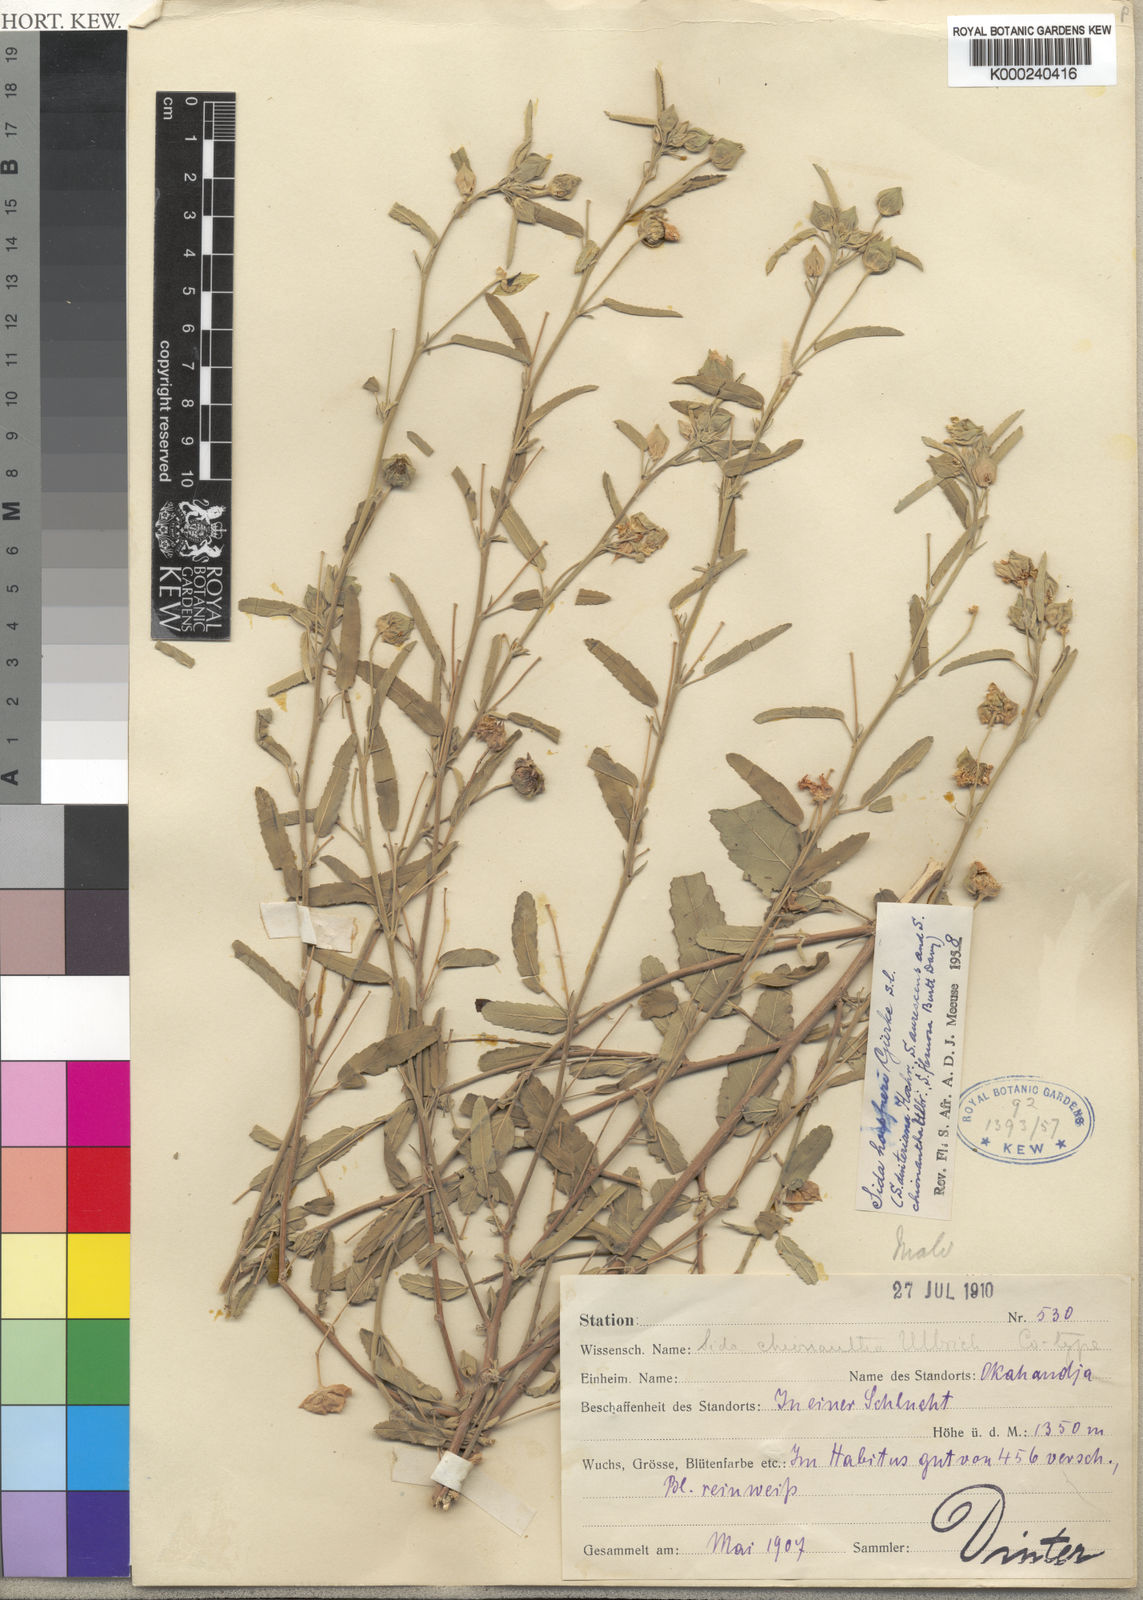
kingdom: Plantae
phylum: Tracheophyta
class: Magnoliopsida
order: Malvales
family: Malvaceae
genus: Sida
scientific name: Sida
